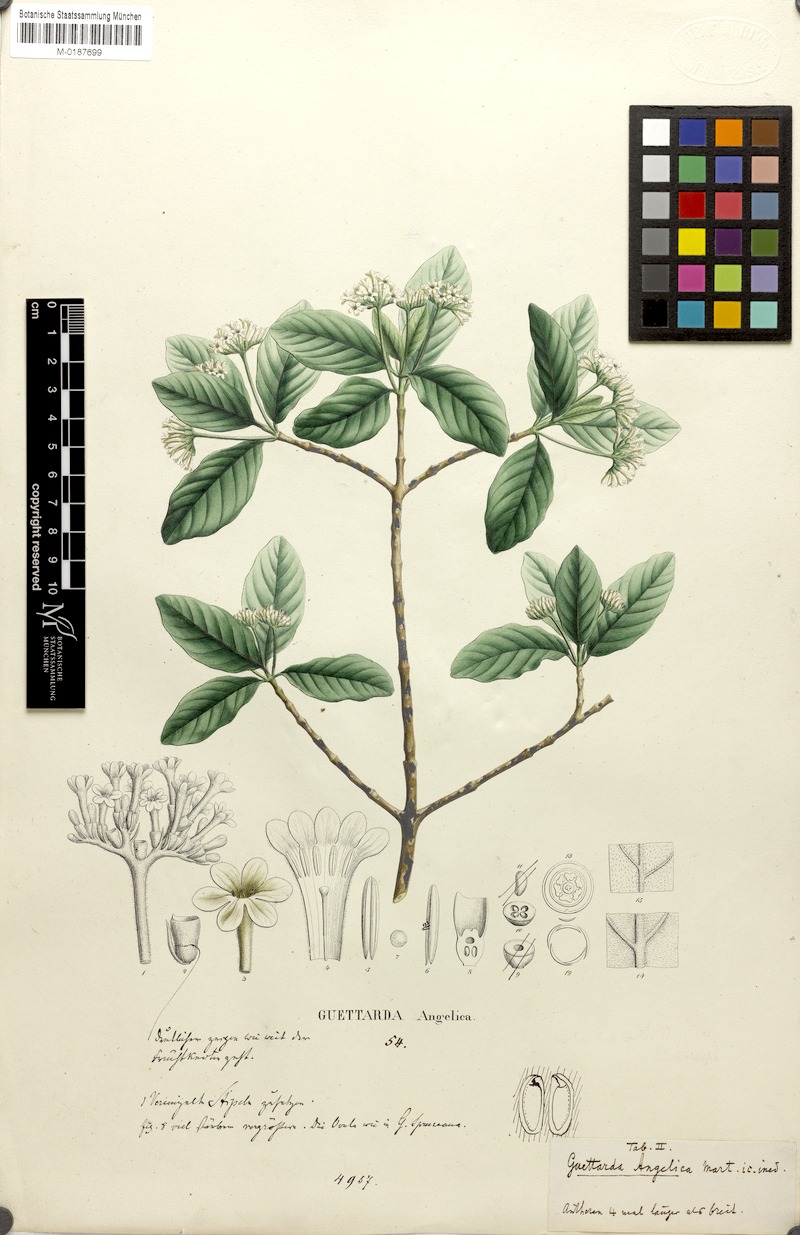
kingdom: Plantae
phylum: Tracheophyta
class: Magnoliopsida
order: Gentianales
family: Rubiaceae
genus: Guettarda
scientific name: Guettarda angelica
